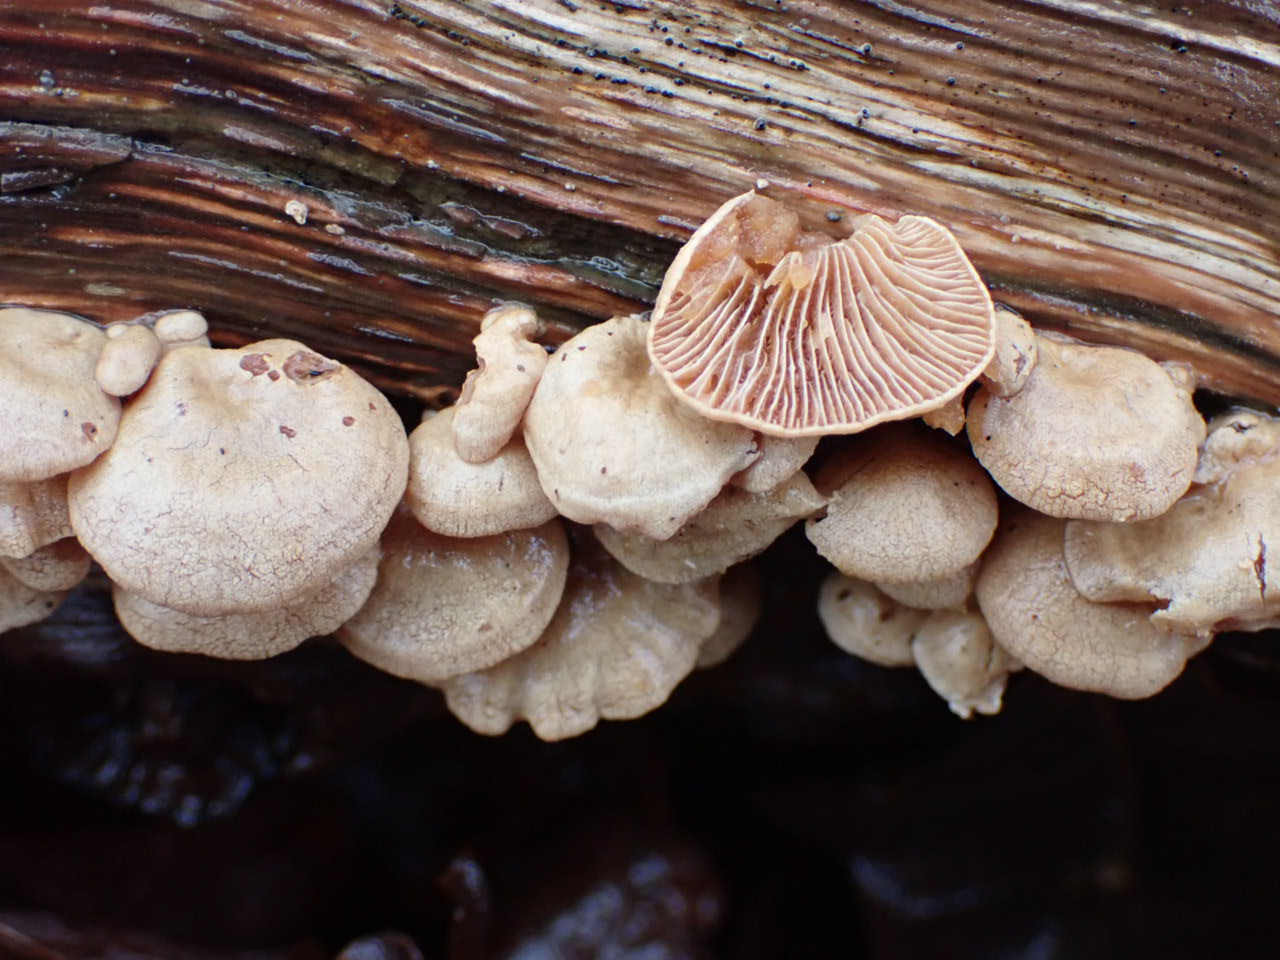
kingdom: Fungi
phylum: Basidiomycota
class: Agaricomycetes
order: Agaricales
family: Mycenaceae
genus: Panellus
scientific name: Panellus stipticus
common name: kliddet epaulethat
